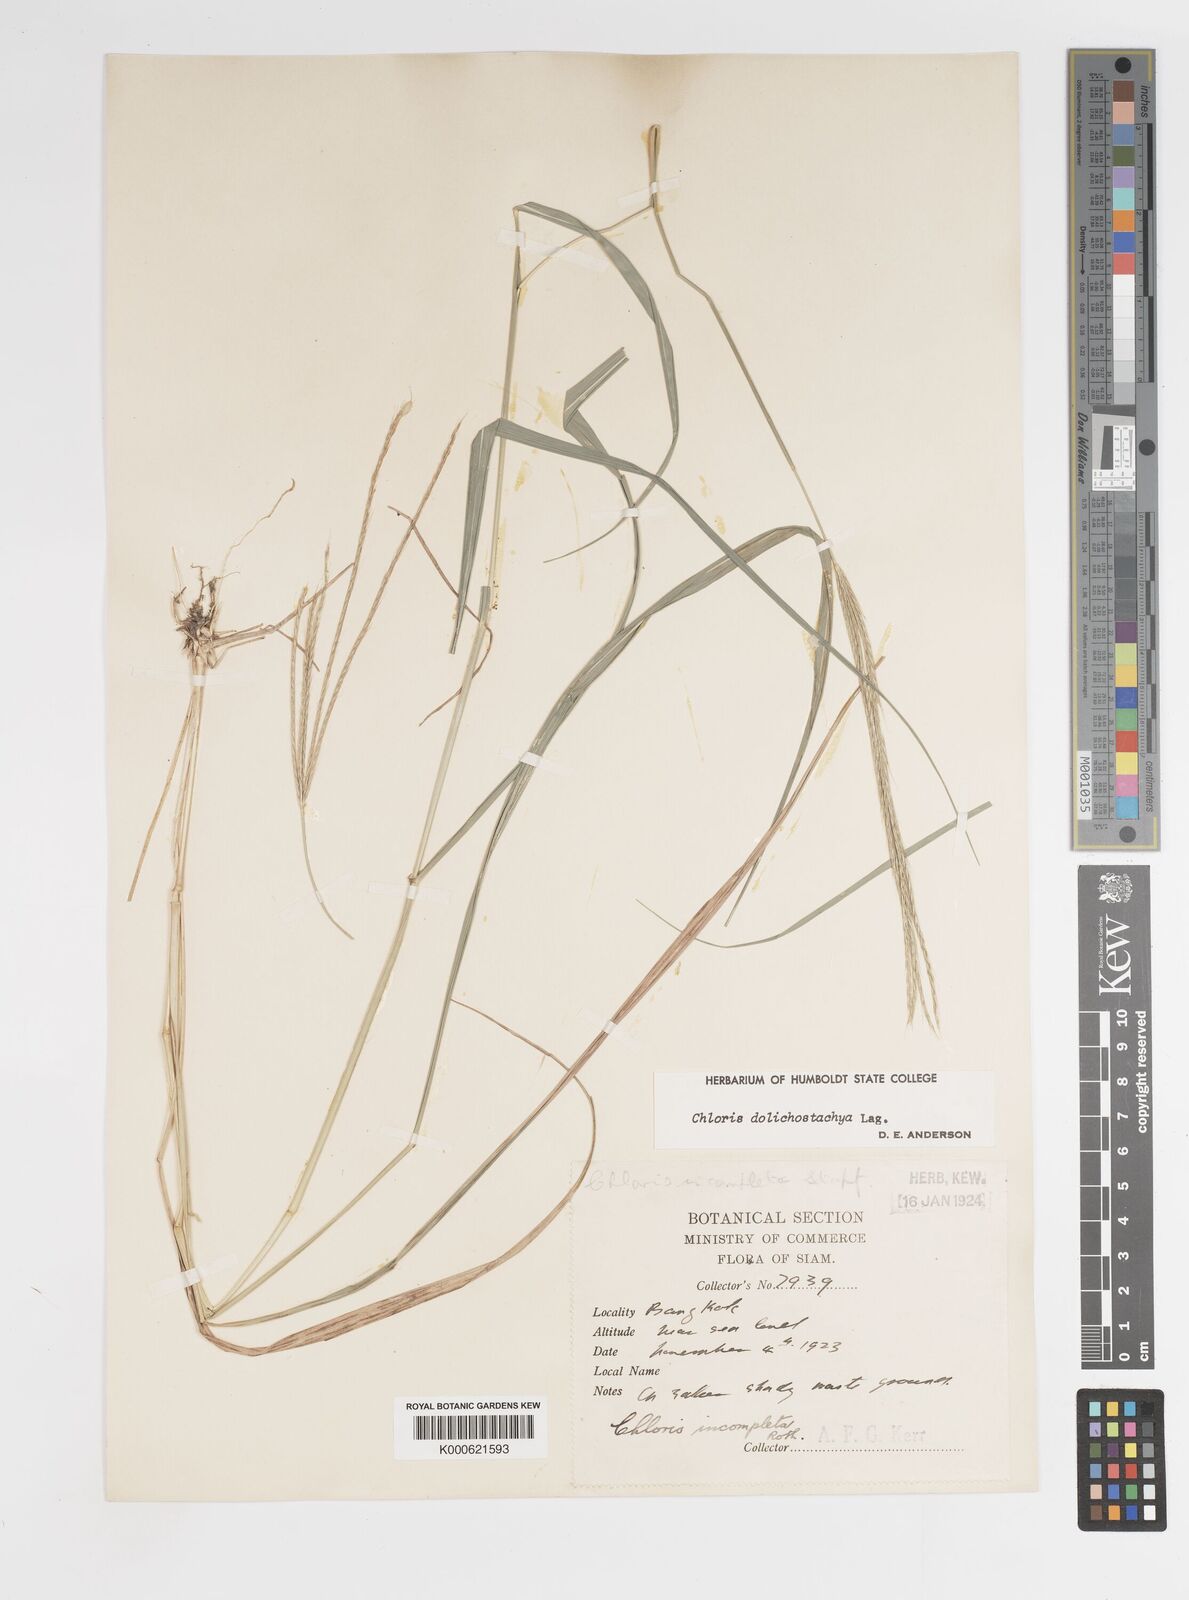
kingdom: Plantae
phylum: Tracheophyta
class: Liliopsida
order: Poales
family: Poaceae
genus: Enteropogon
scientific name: Enteropogon dolichostachyus
